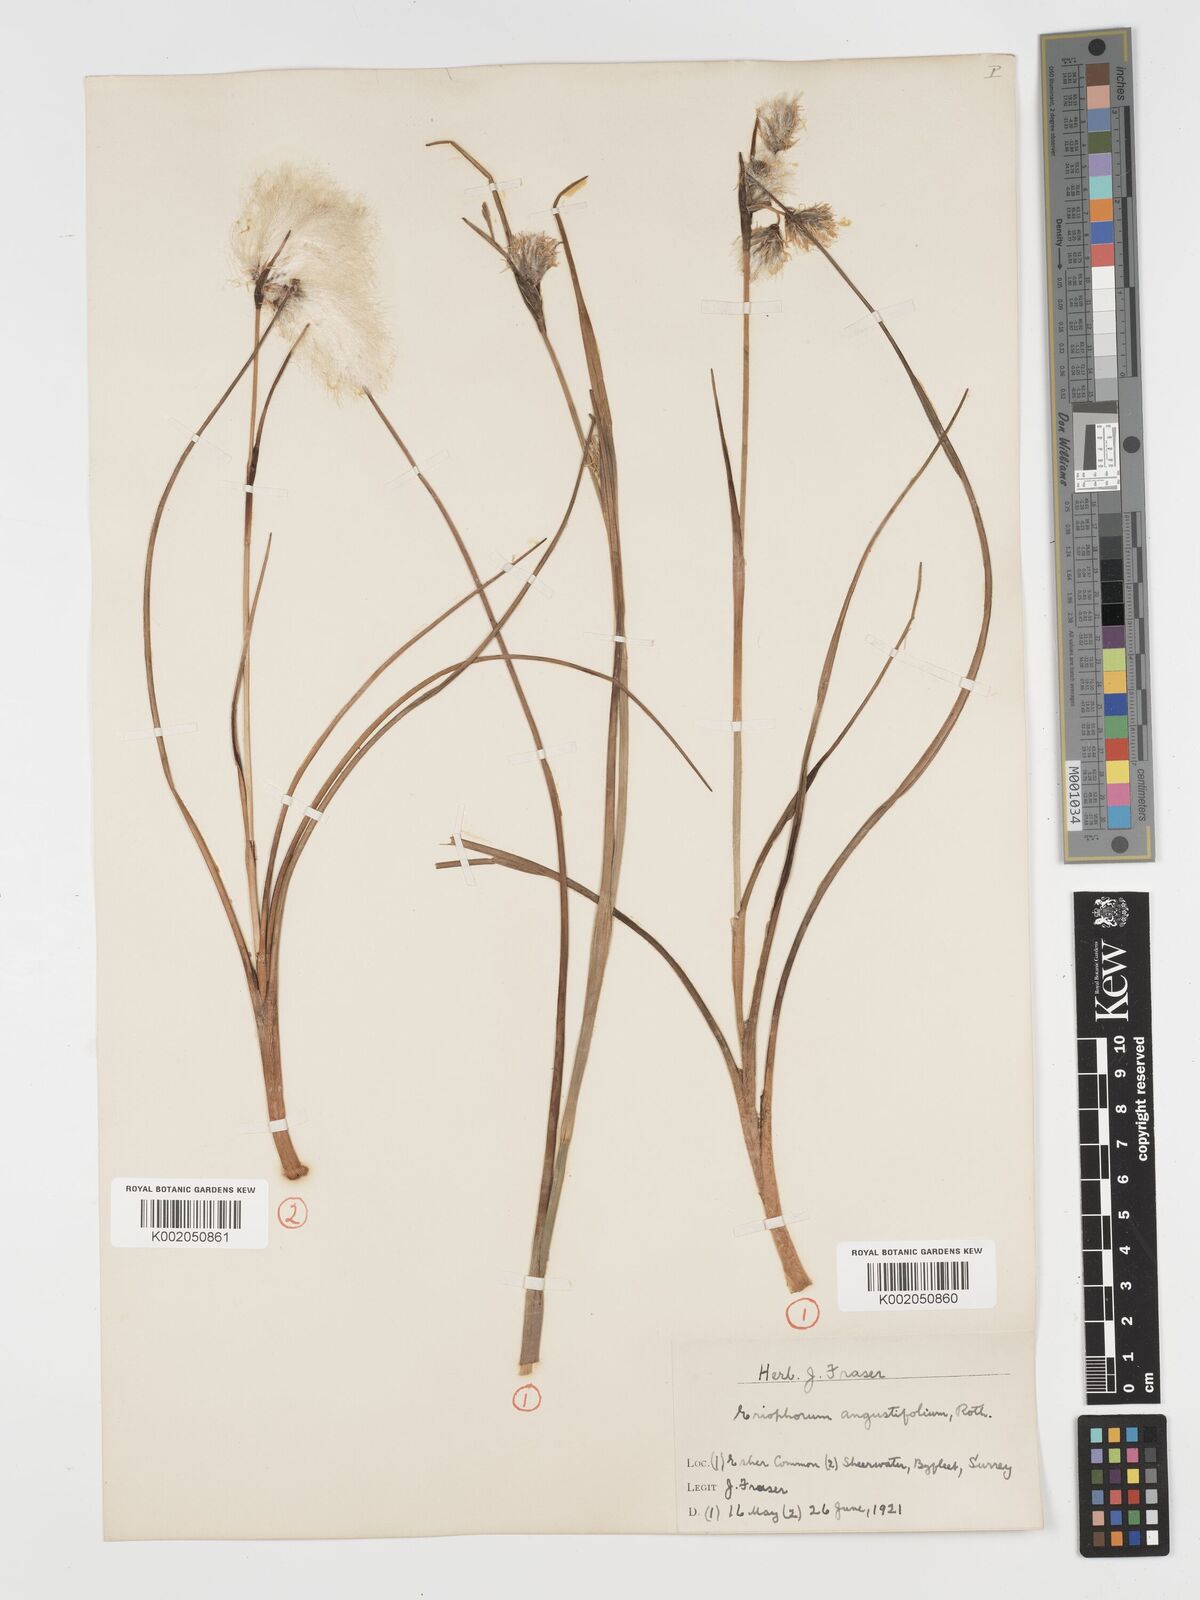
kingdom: Plantae
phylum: Tracheophyta
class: Liliopsida
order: Poales
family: Cyperaceae
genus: Eriophorum
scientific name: Eriophorum angustifolium
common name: Common cottongrass
